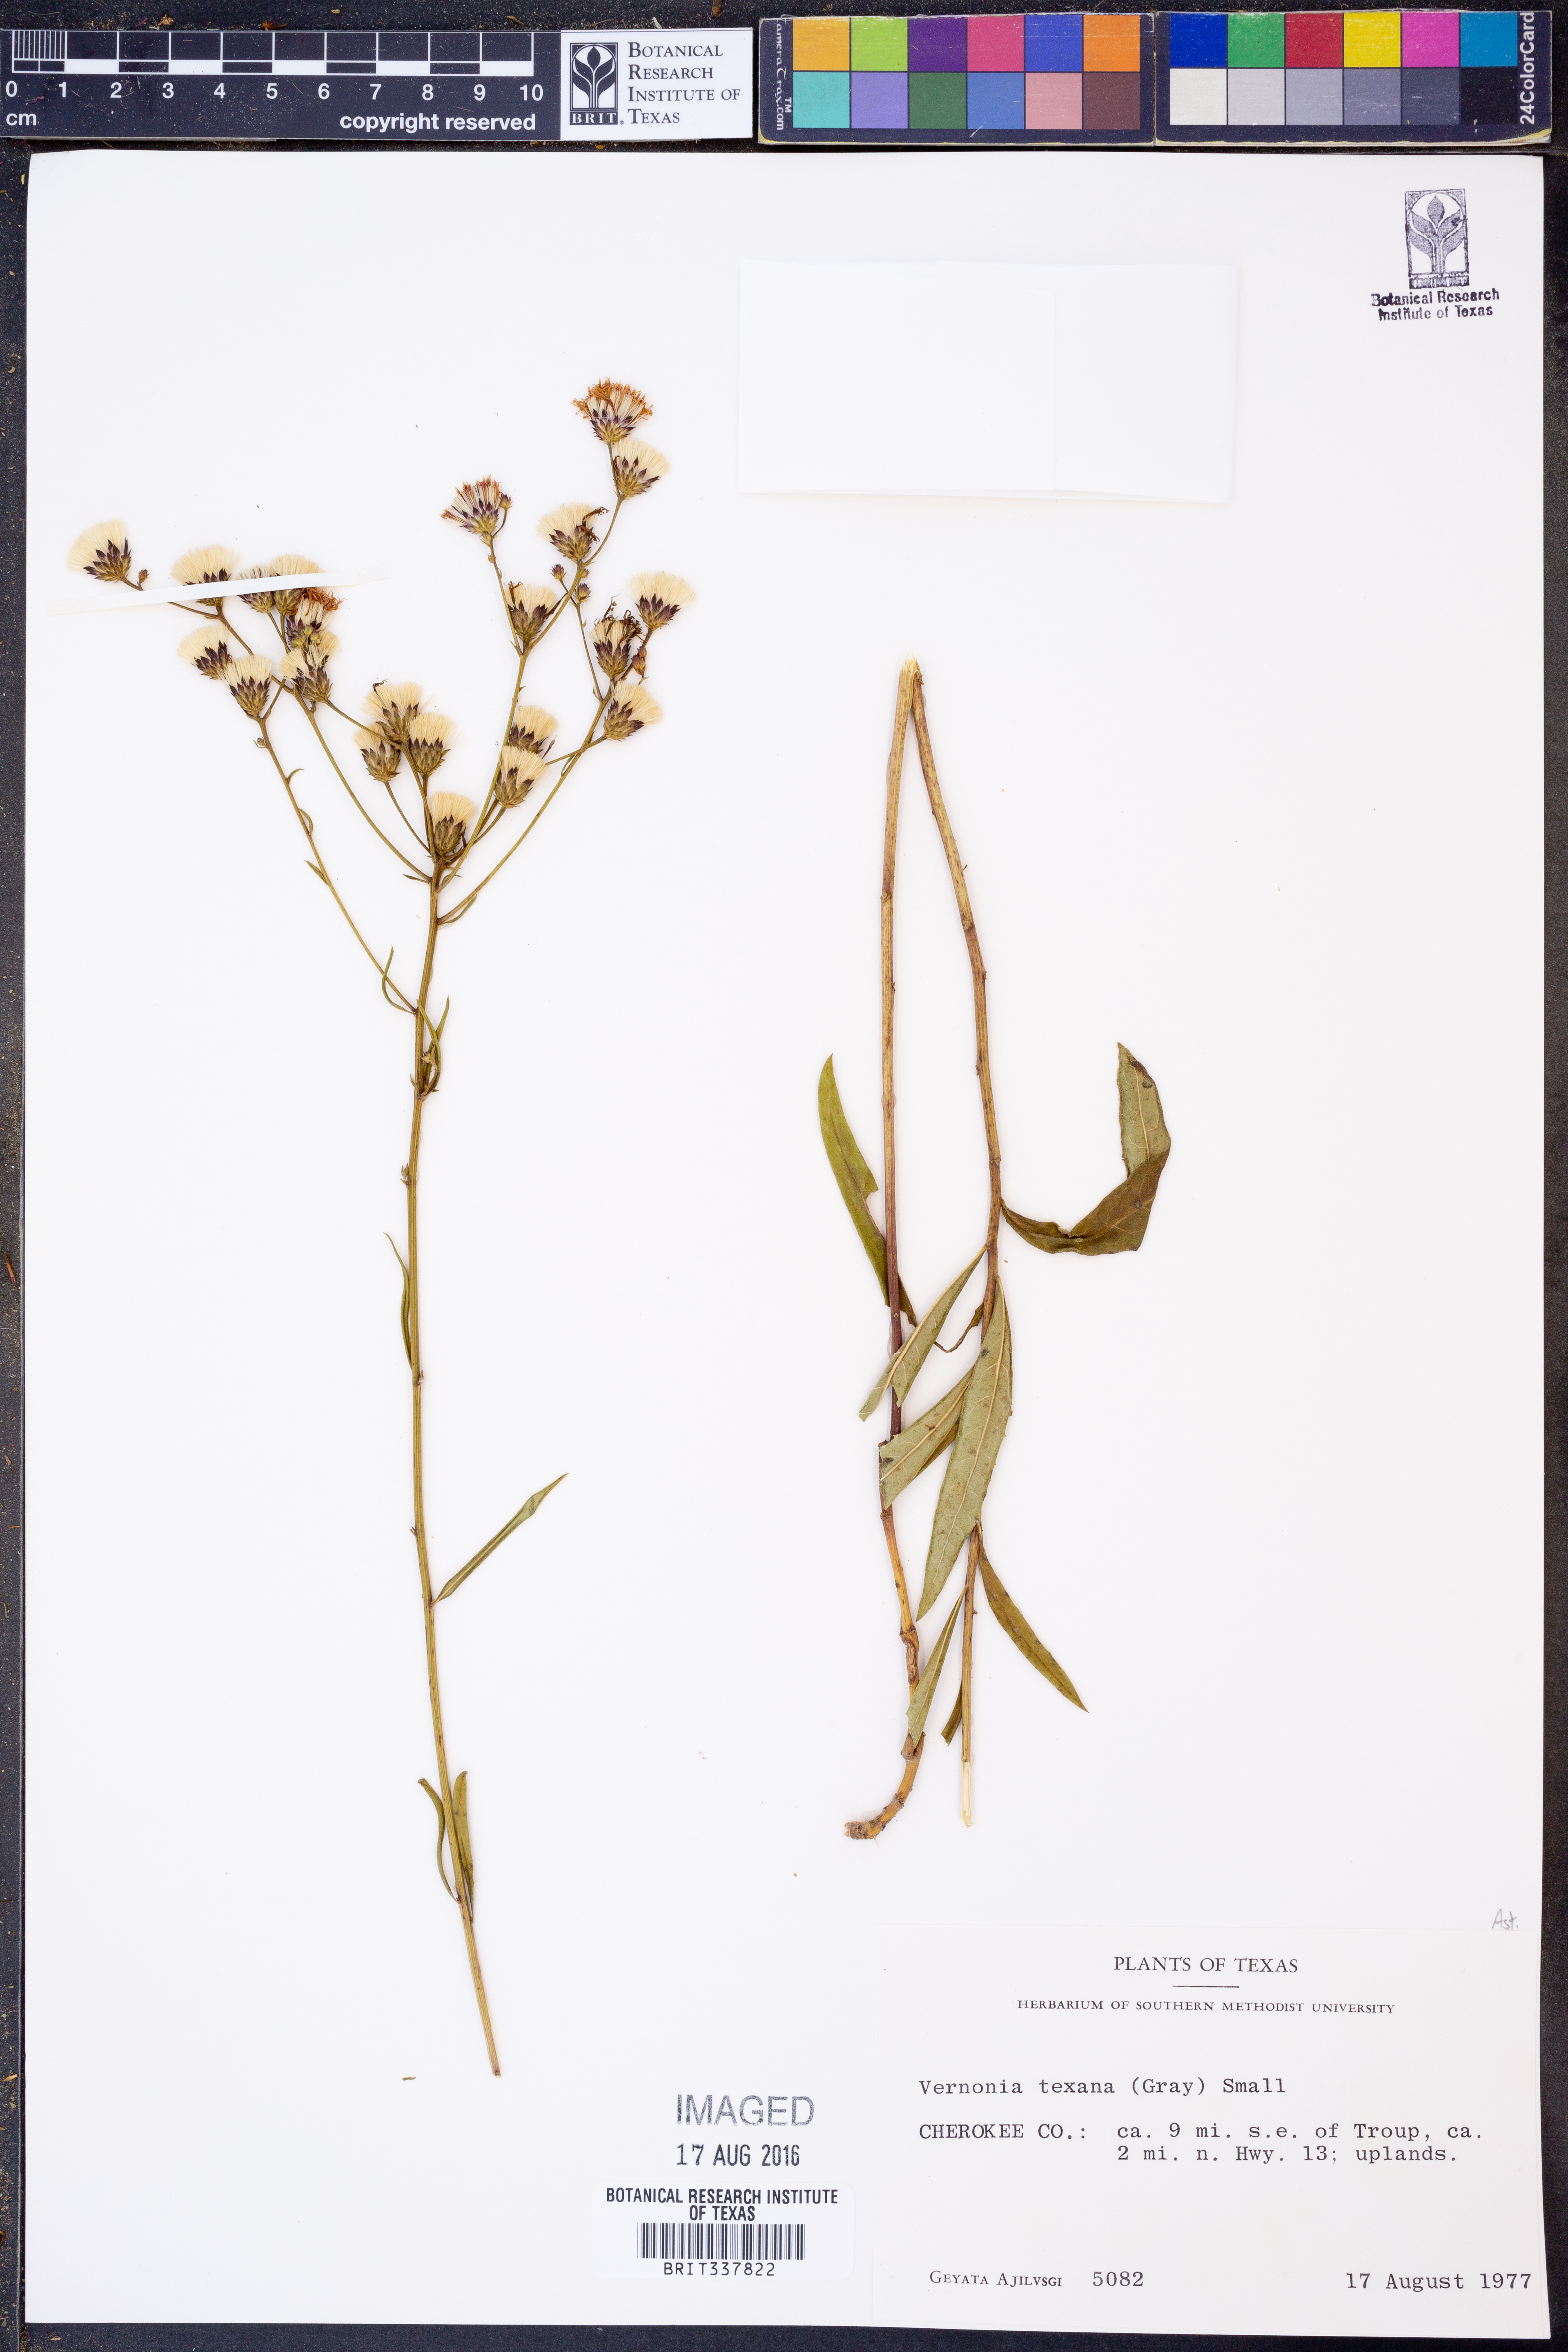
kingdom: Plantae
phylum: Tracheophyta
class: Magnoliopsida
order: Asterales
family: Asteraceae
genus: Vernonia
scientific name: Vernonia texana
